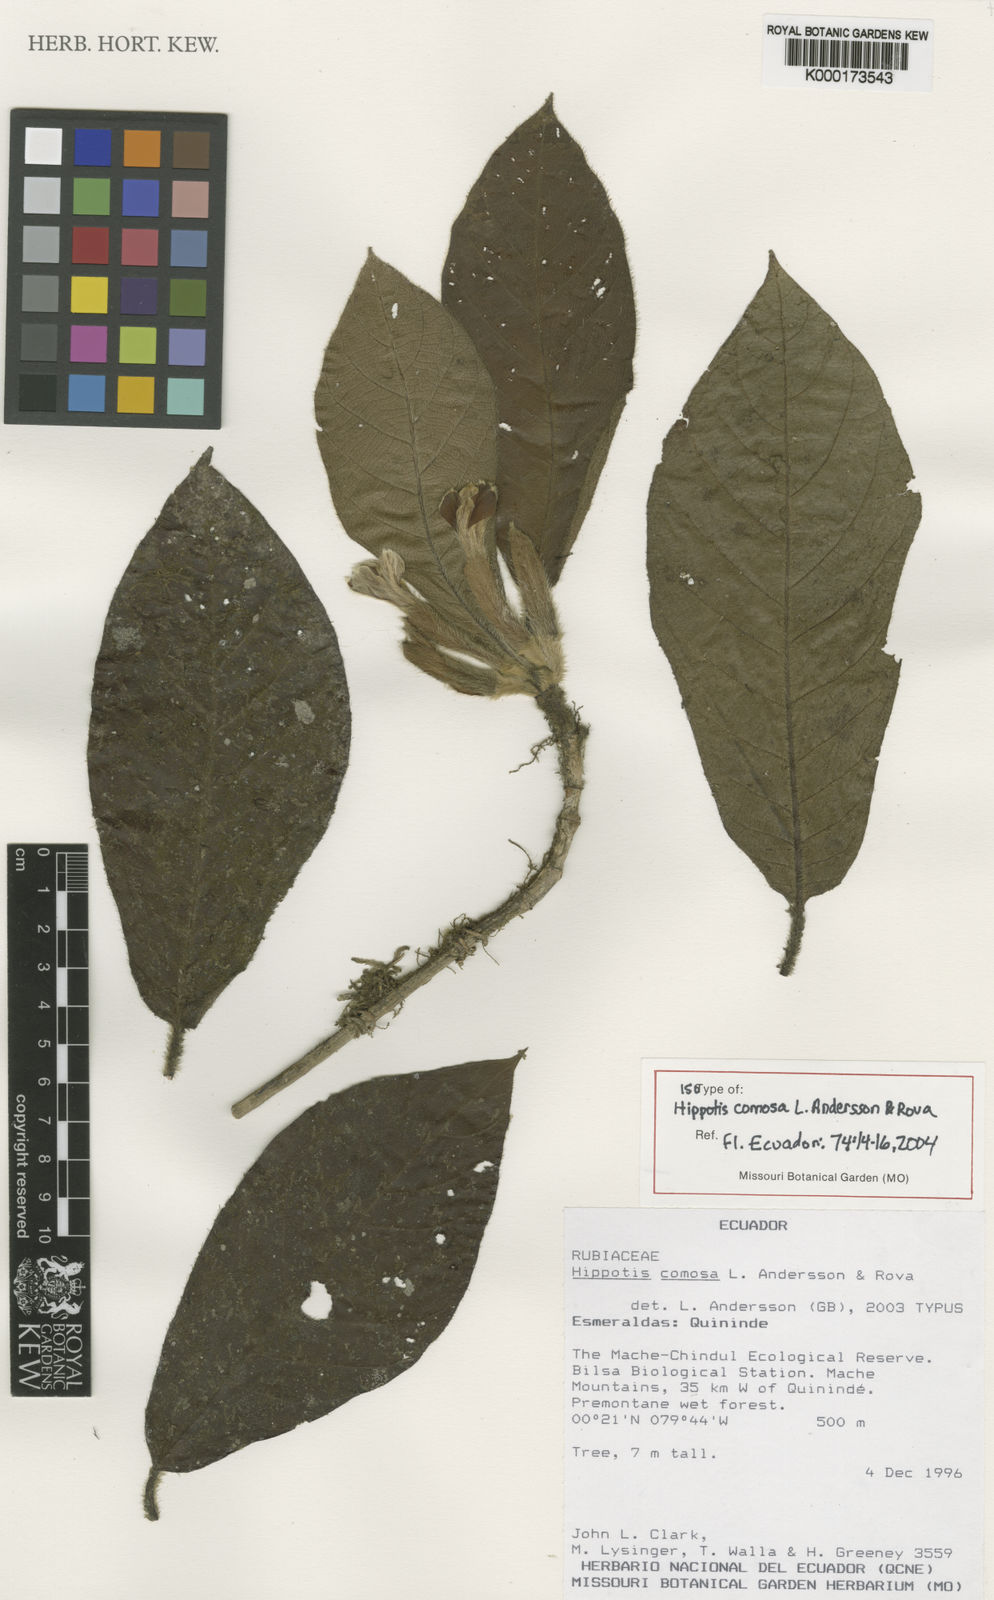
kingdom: Plantae
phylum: Tracheophyta
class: Magnoliopsida
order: Gentianales
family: Rubiaceae
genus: Hippotis
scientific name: Hippotis comosa
